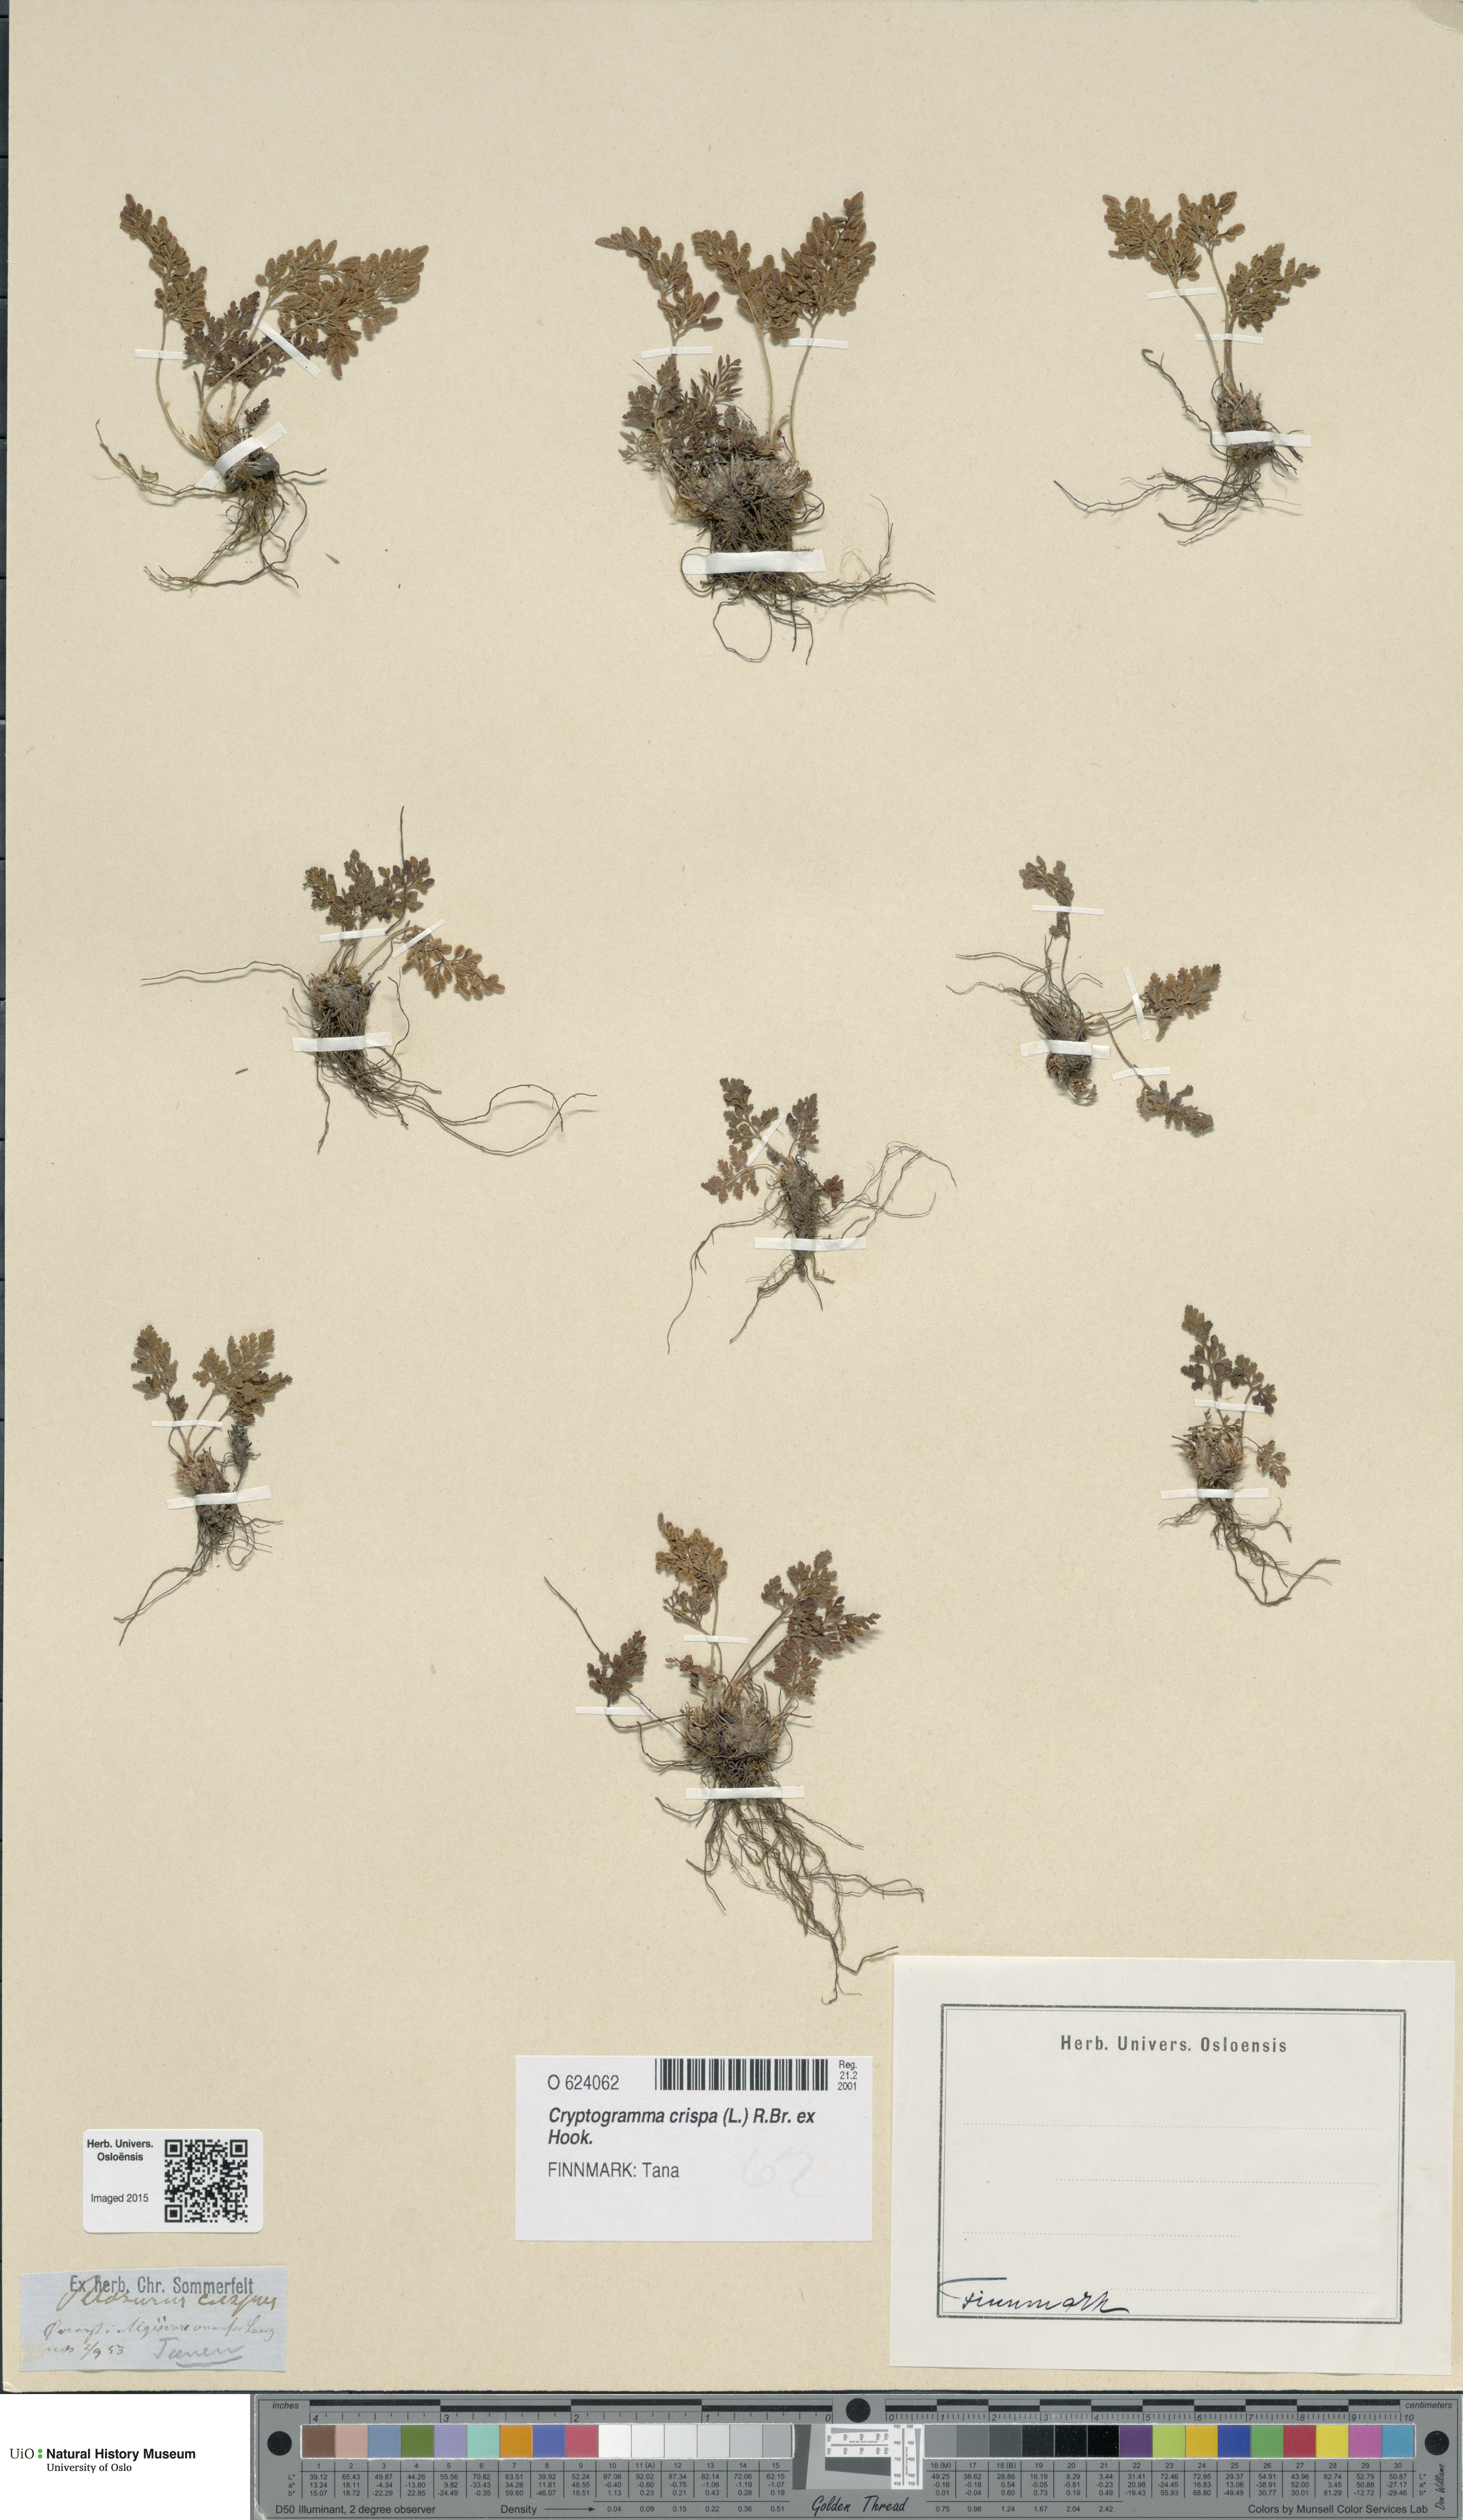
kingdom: Plantae
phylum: Tracheophyta
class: Polypodiopsida
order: Polypodiales
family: Pteridaceae
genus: Cryptogramma
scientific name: Cryptogramma crispa
